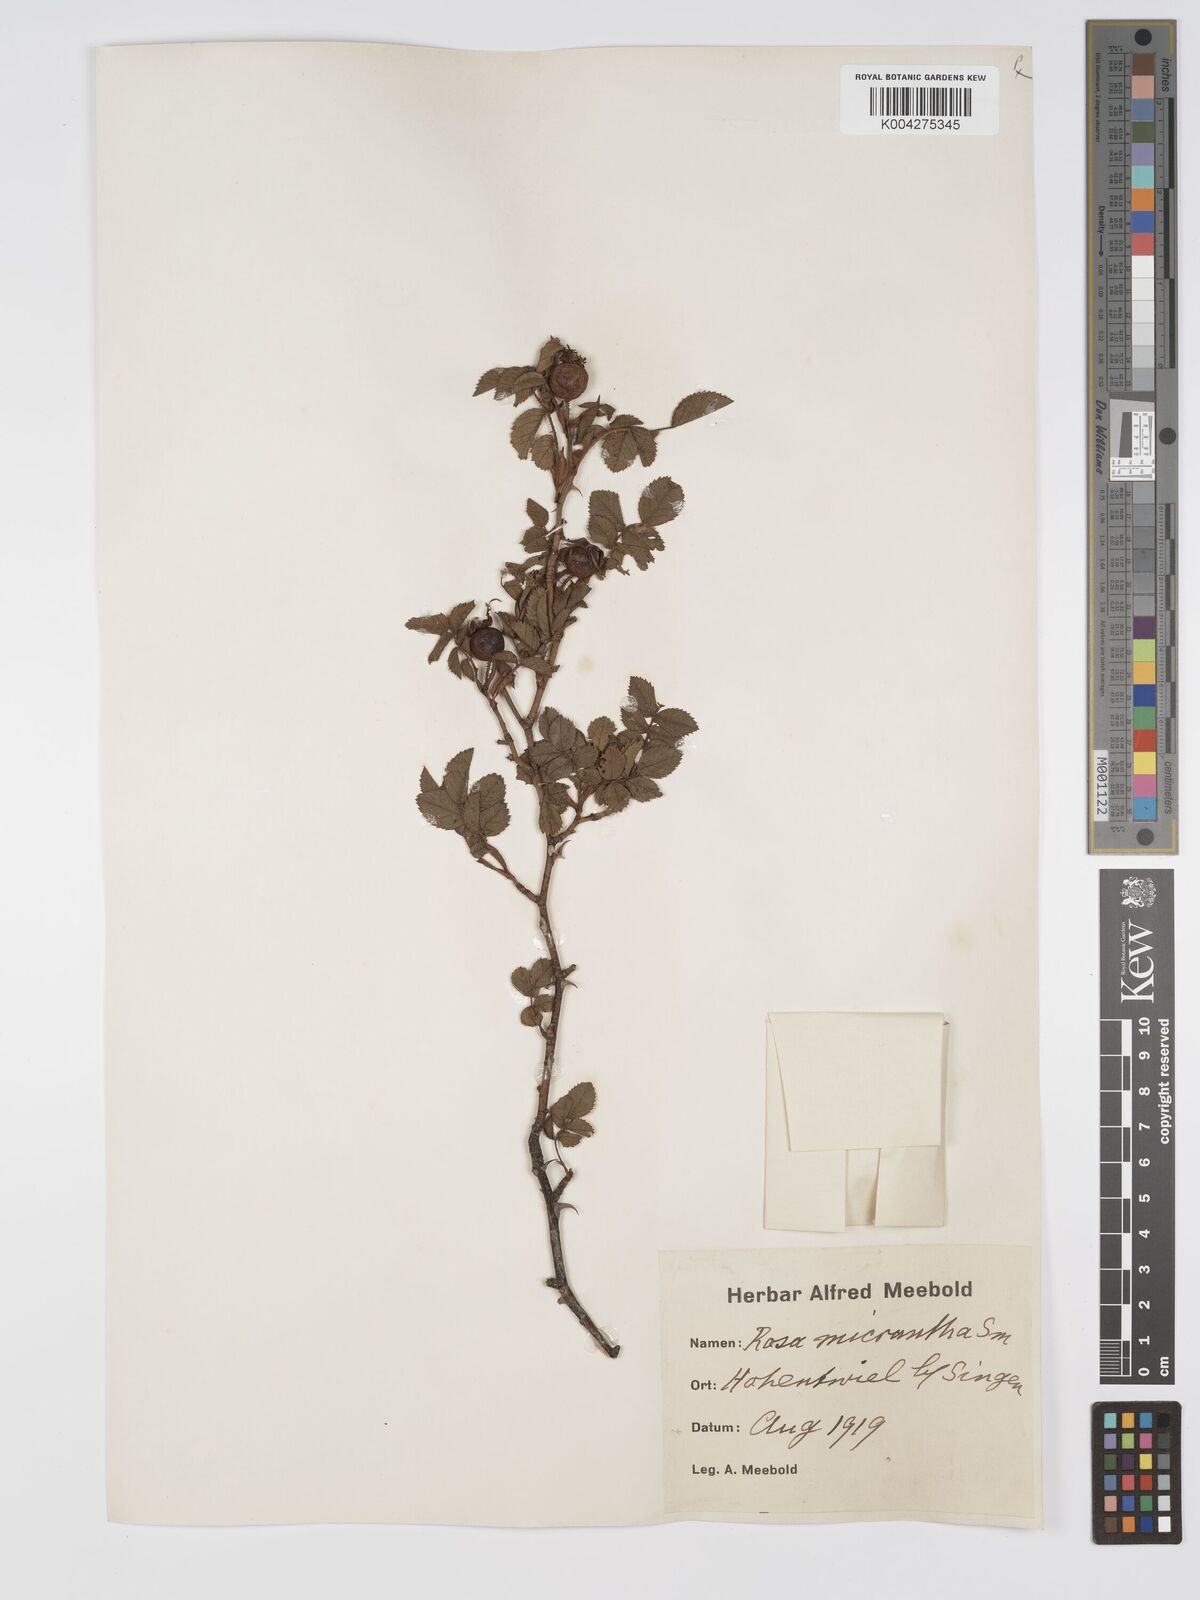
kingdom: Plantae
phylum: Tracheophyta
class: Magnoliopsida
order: Rosales
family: Rosaceae
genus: Rosa
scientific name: Rosa
